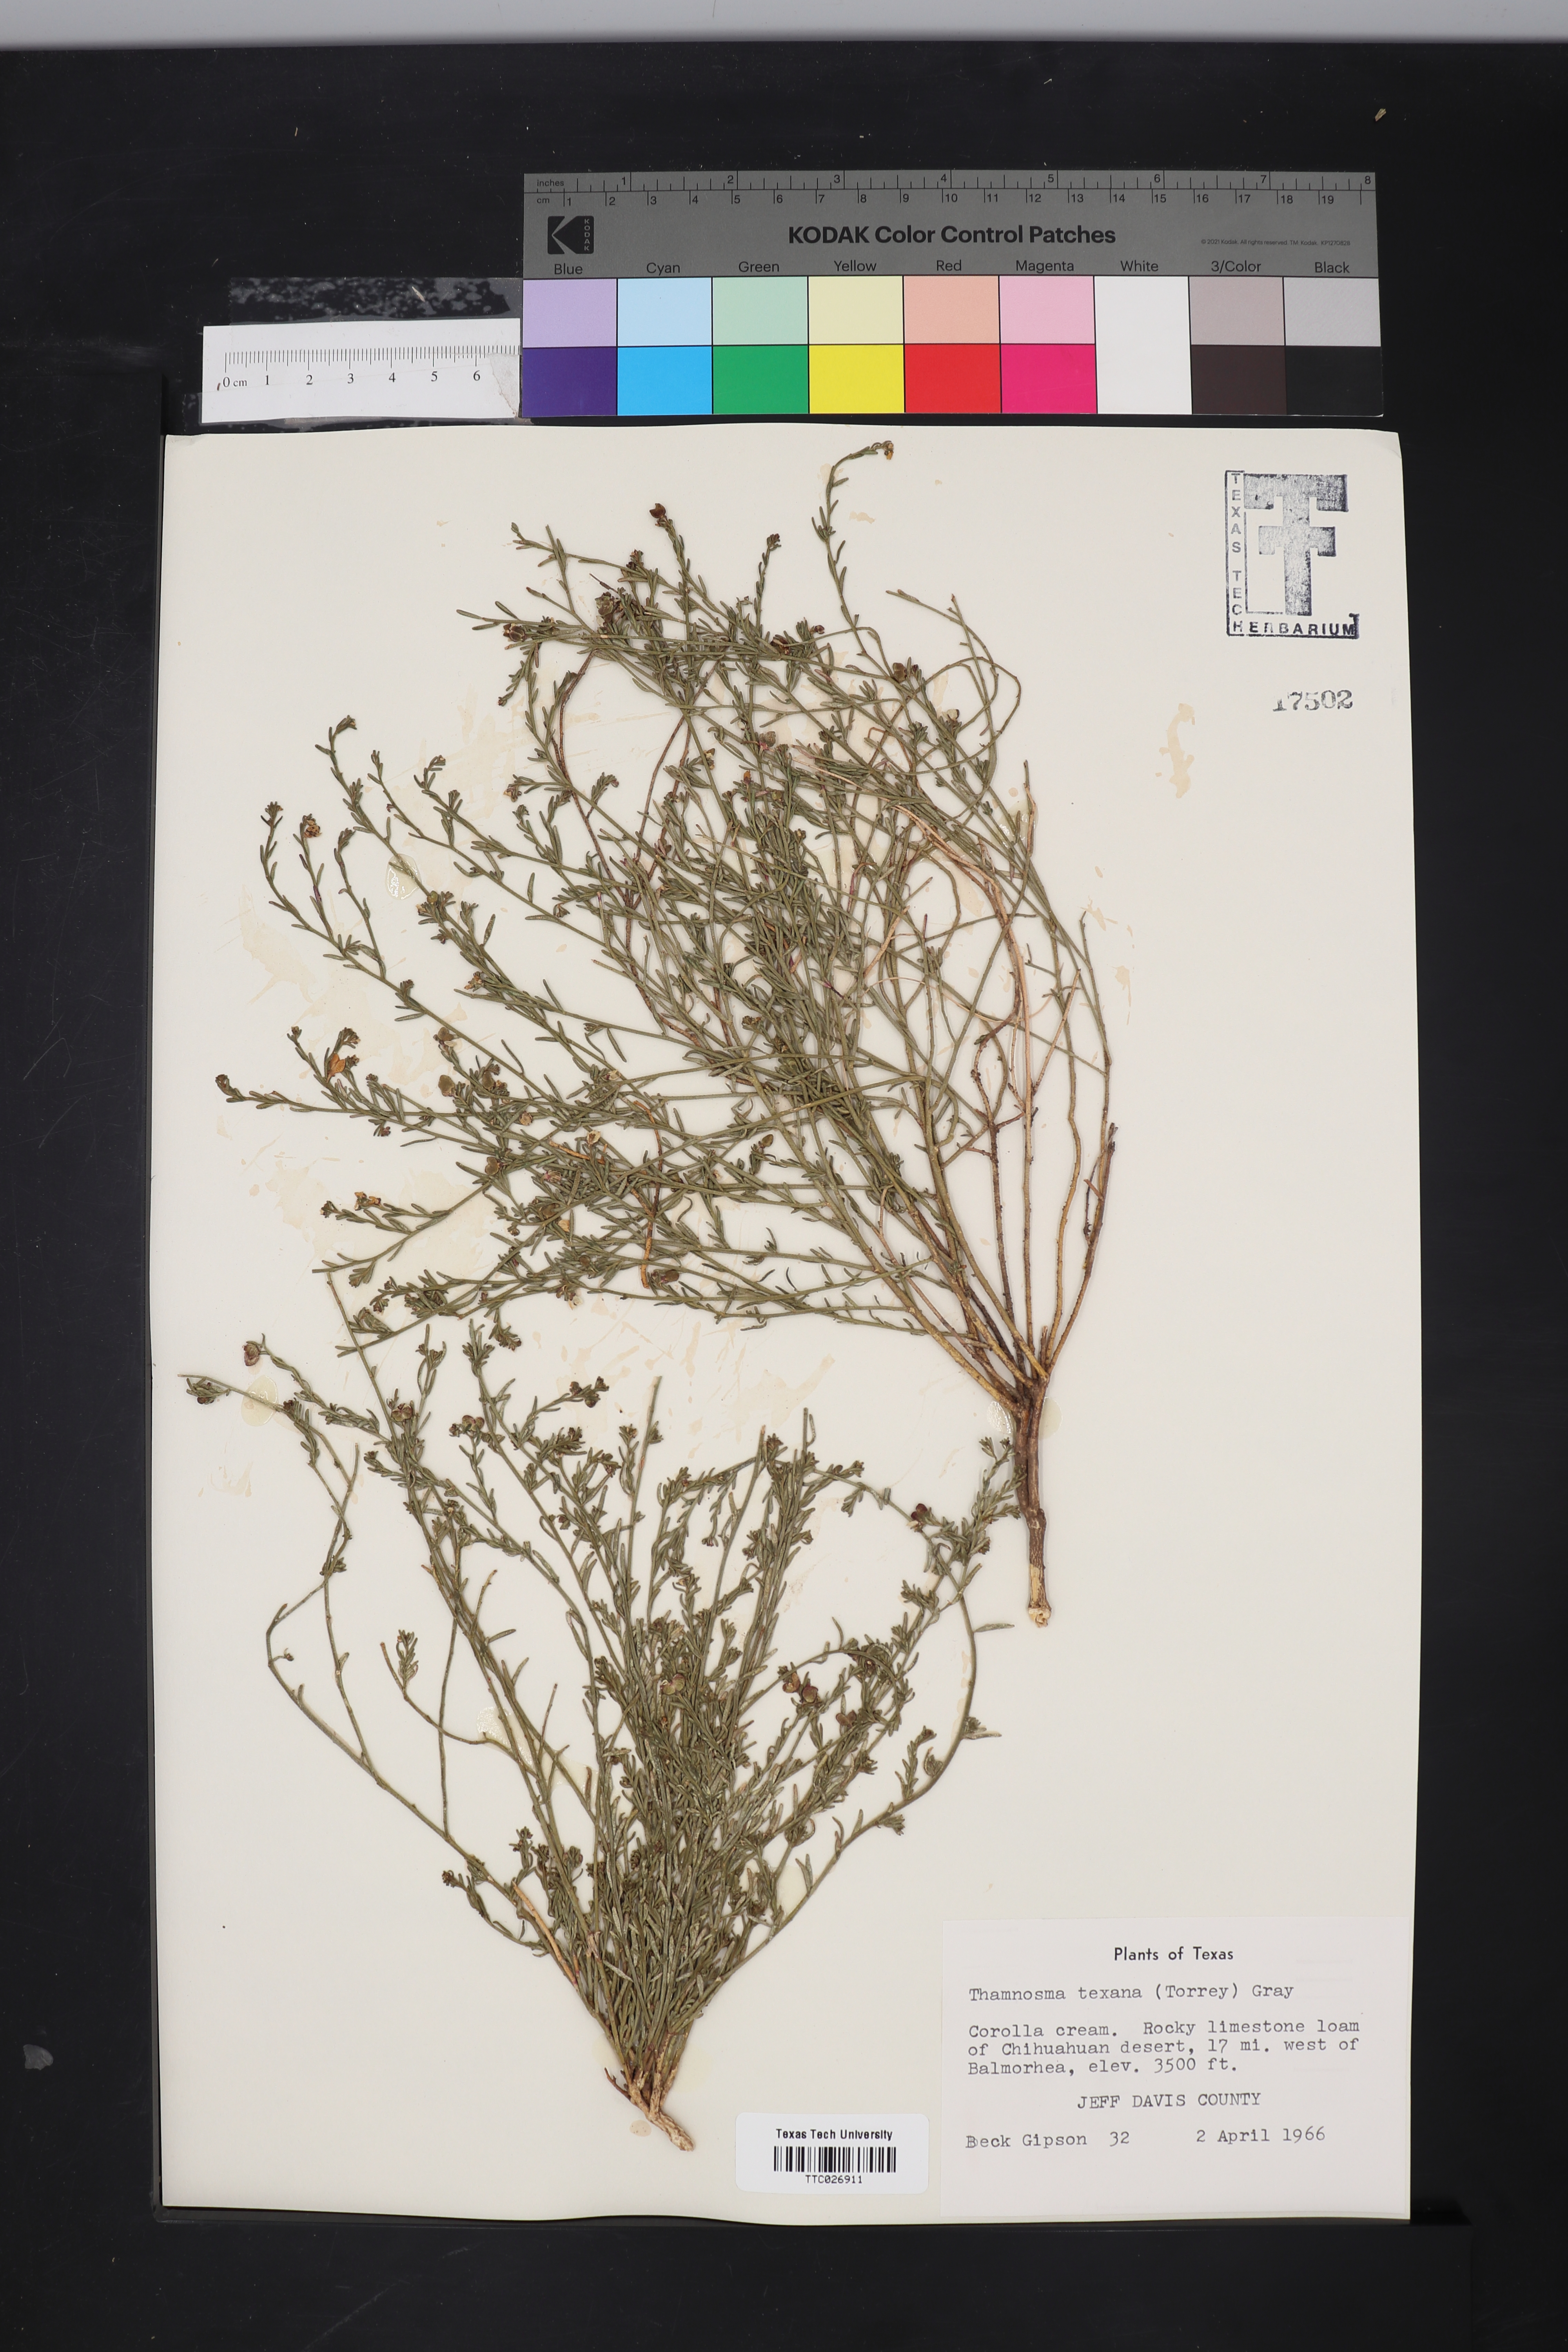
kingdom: Plantae
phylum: Tracheophyta
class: Magnoliopsida
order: Sapindales
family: Rutaceae
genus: Thamnosma
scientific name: Thamnosma texana
